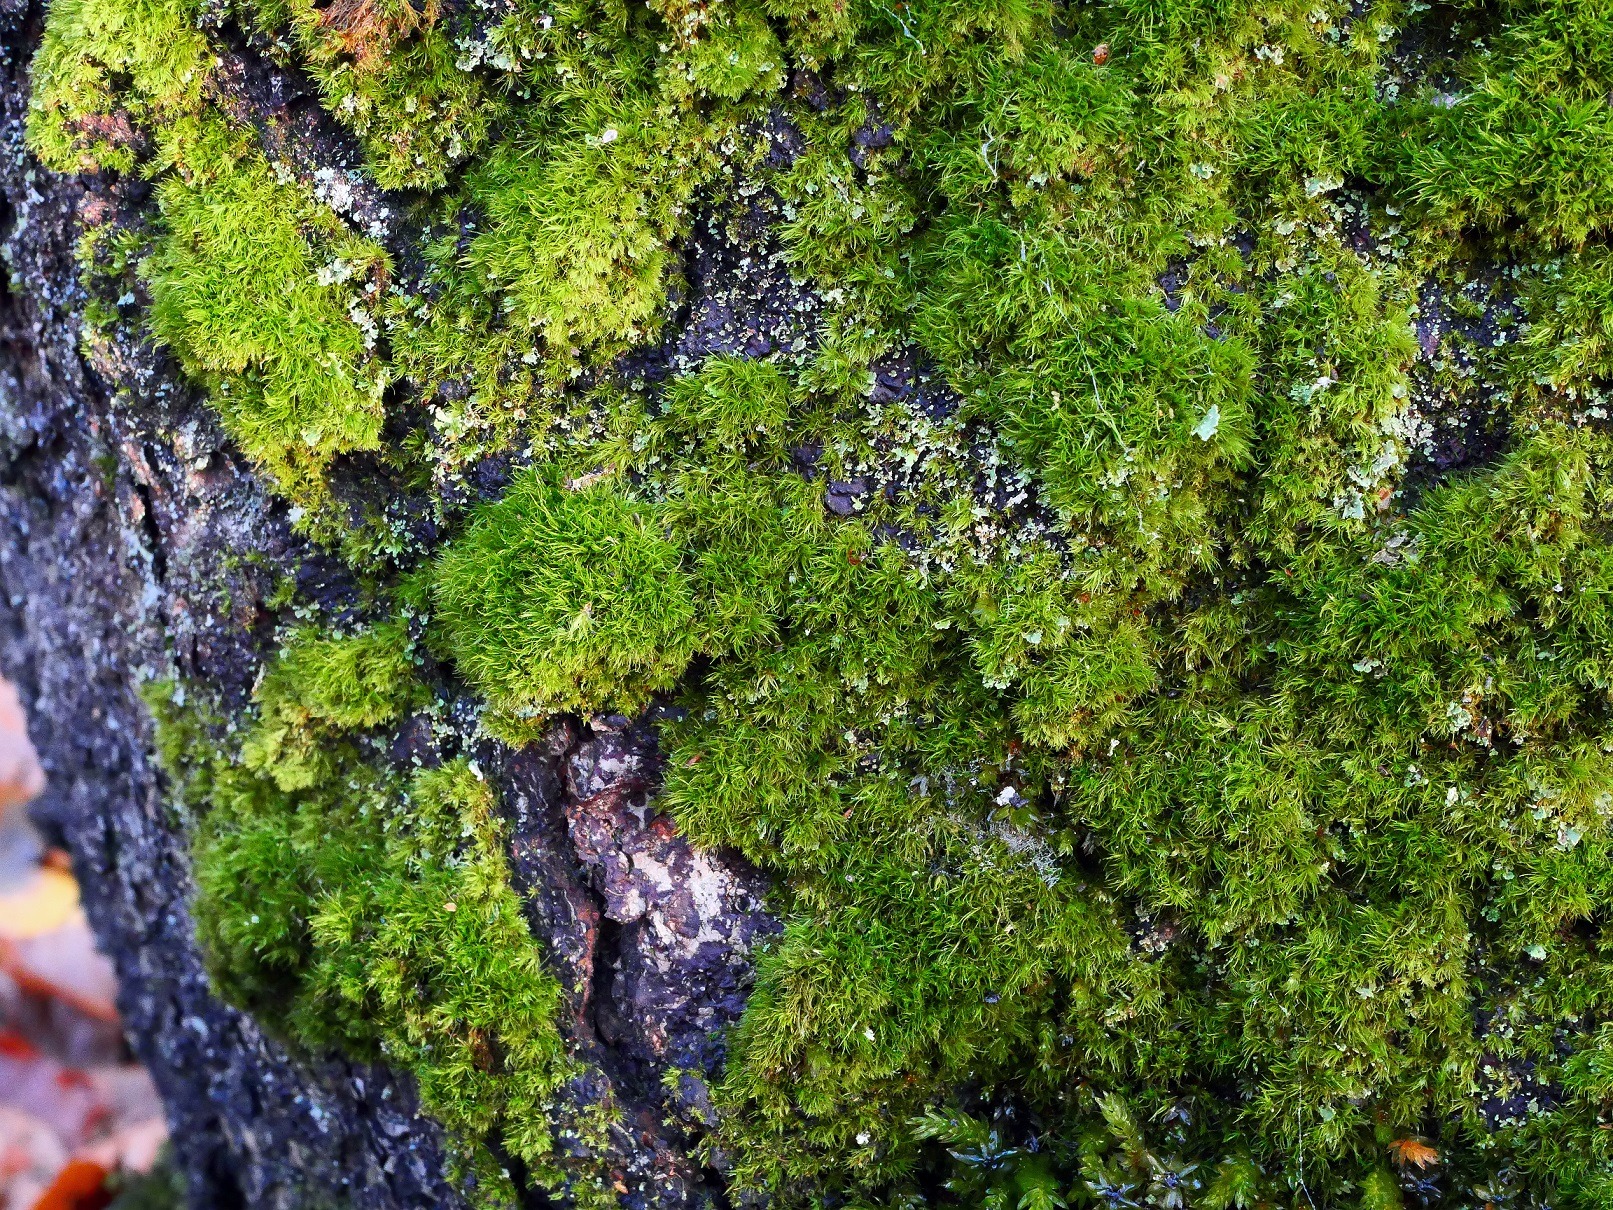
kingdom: Plantae
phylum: Bryophyta
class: Bryopsida
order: Dicranales
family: Dicranaceae
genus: Orthodicranum
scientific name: Orthodicranum montanum
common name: Tæt tyndvinge
